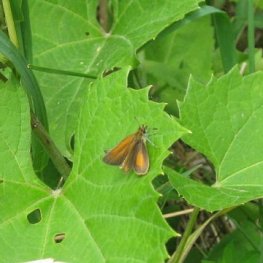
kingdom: Animalia
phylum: Arthropoda
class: Insecta
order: Lepidoptera
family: Hesperiidae
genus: Ancyloxypha
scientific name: Ancyloxypha numitor
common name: Least Skipper
